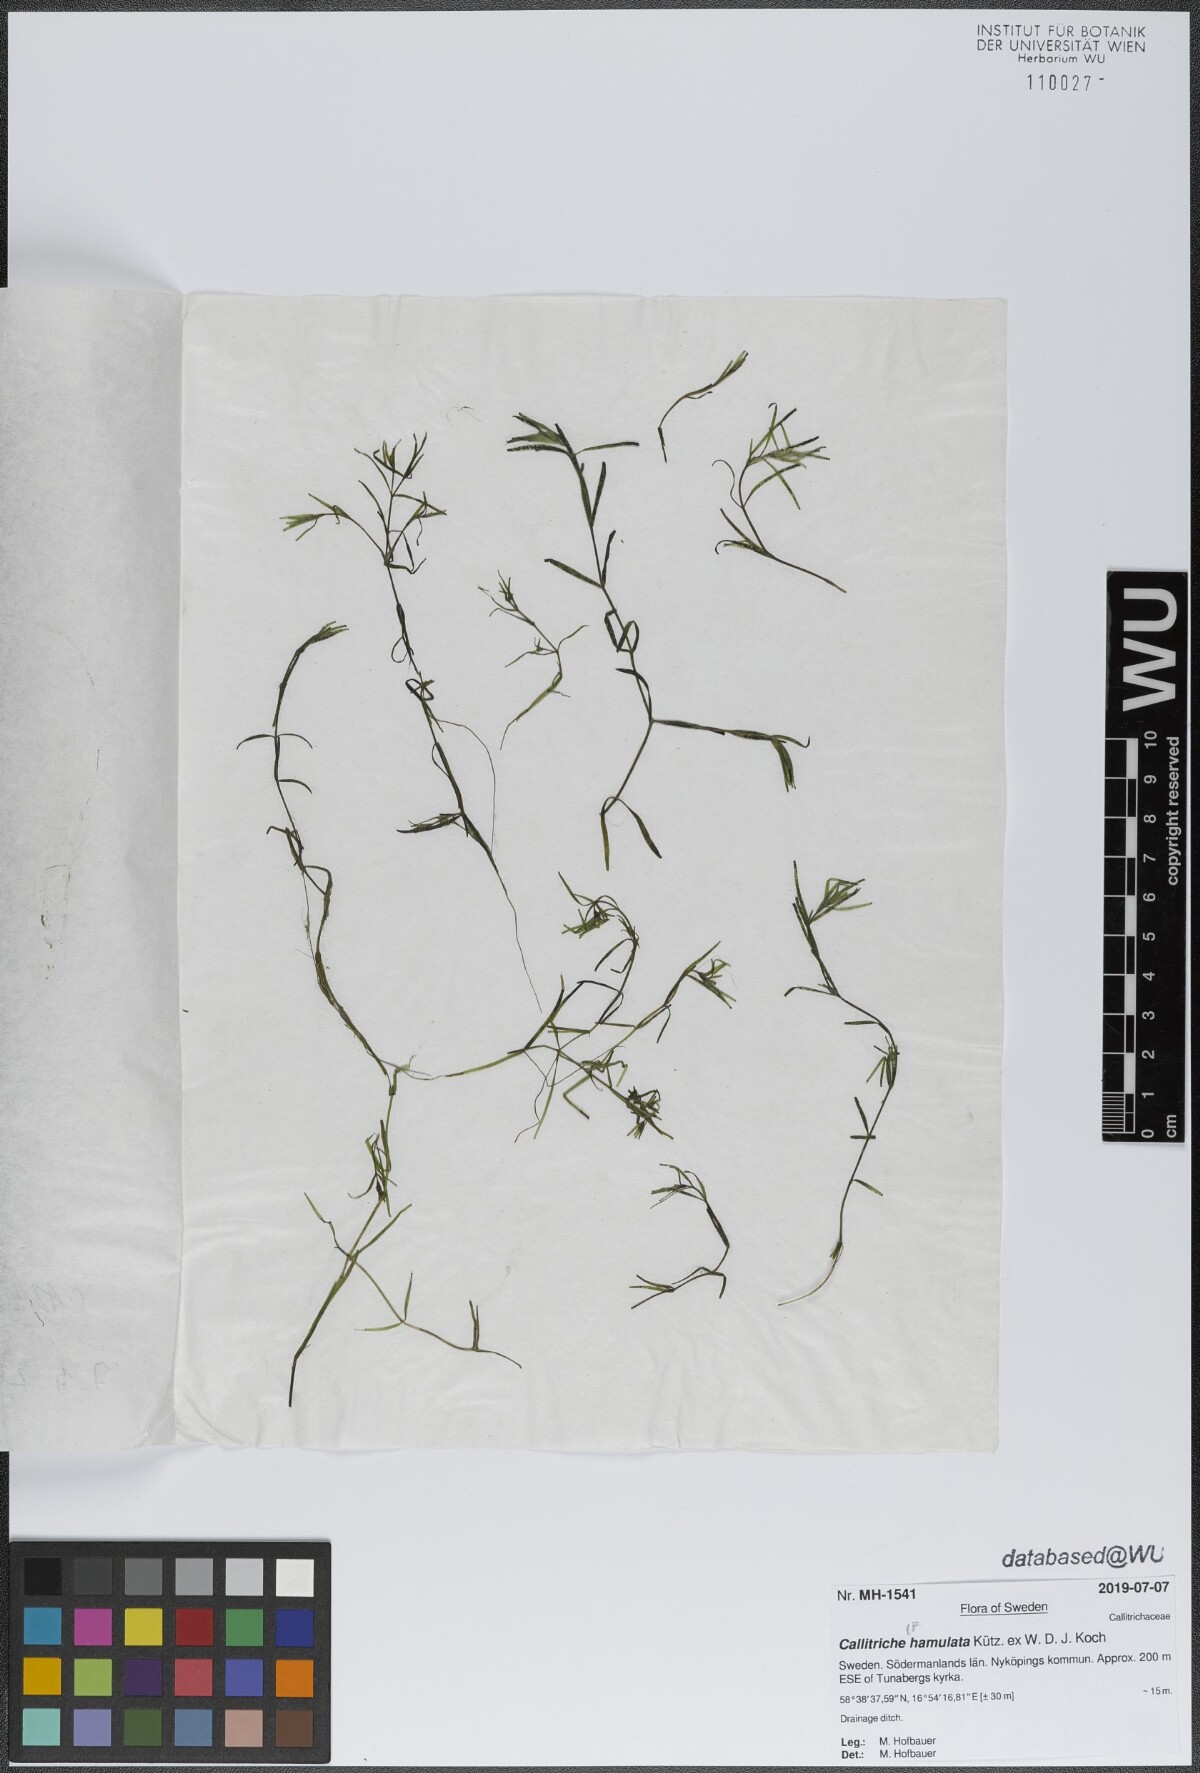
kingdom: Plantae
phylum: Tracheophyta
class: Magnoliopsida
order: Lamiales
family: Plantaginaceae
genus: Callitriche
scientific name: Callitriche cophocarpa
